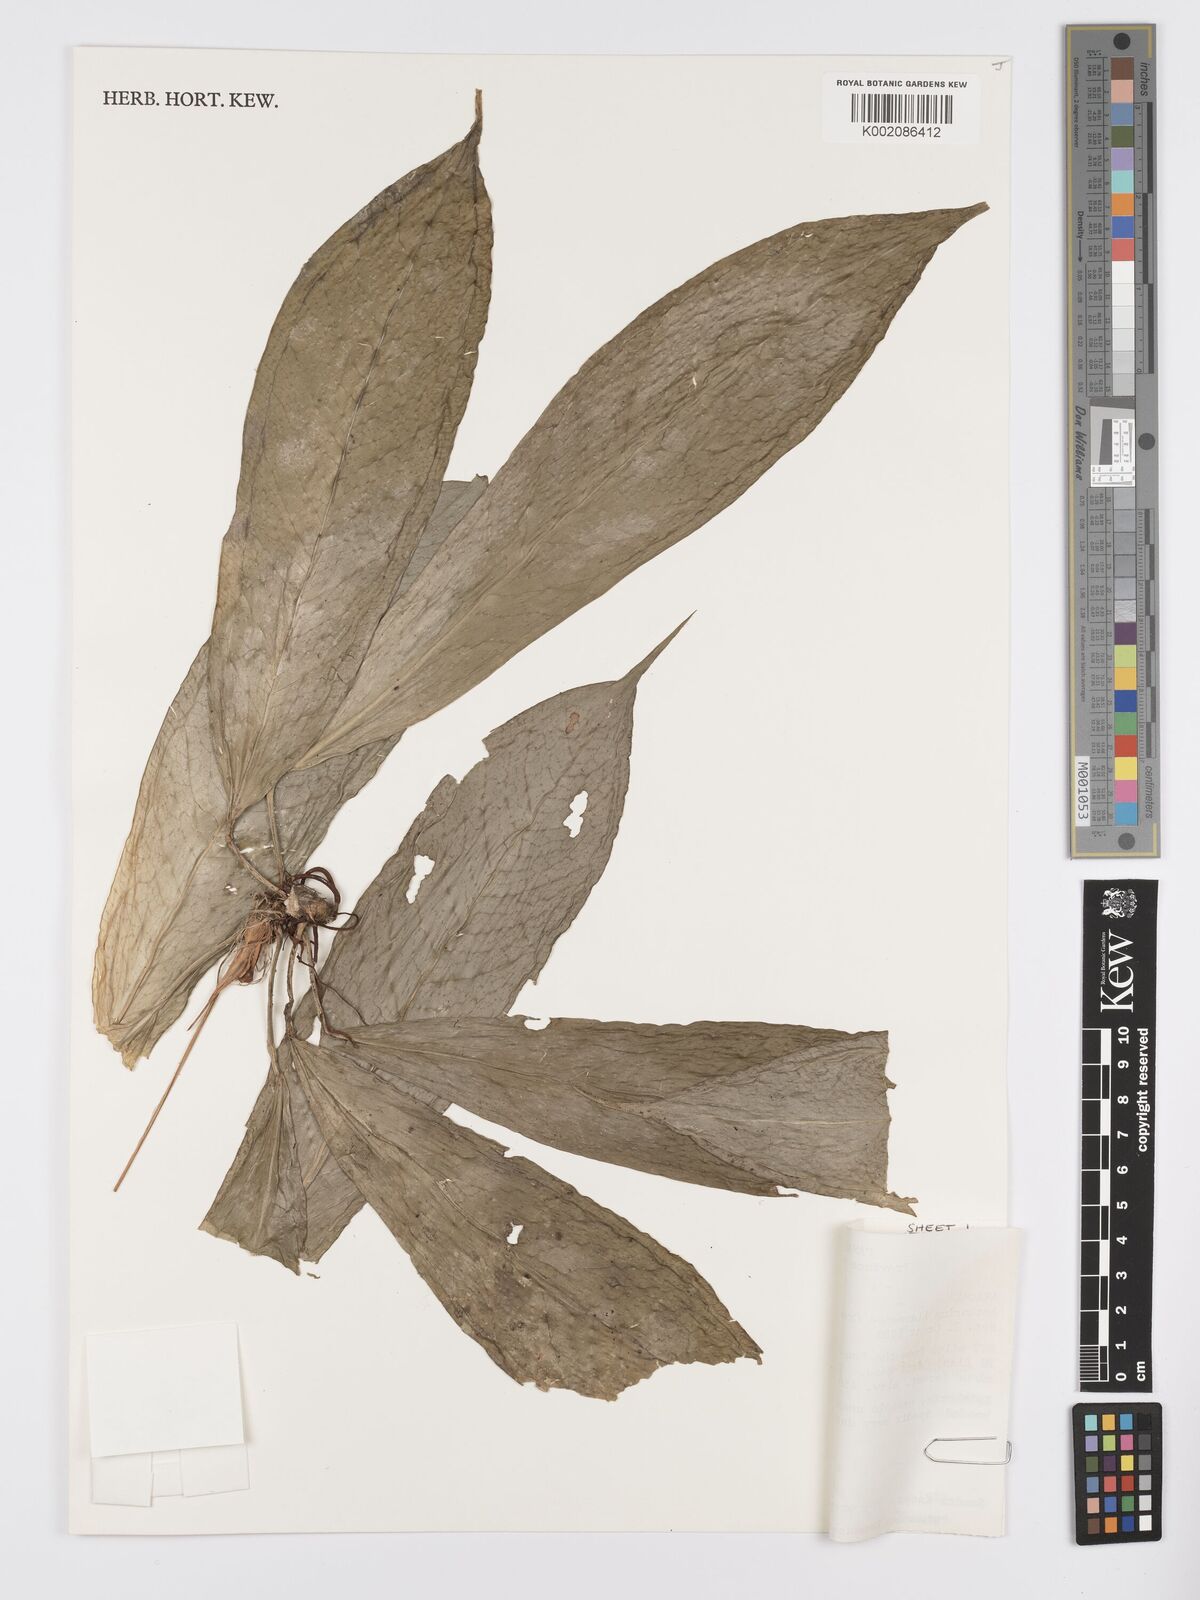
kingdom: Plantae
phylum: Tracheophyta
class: Liliopsida
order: Alismatales
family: Araceae
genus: Anthurium
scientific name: Anthurium llanense
